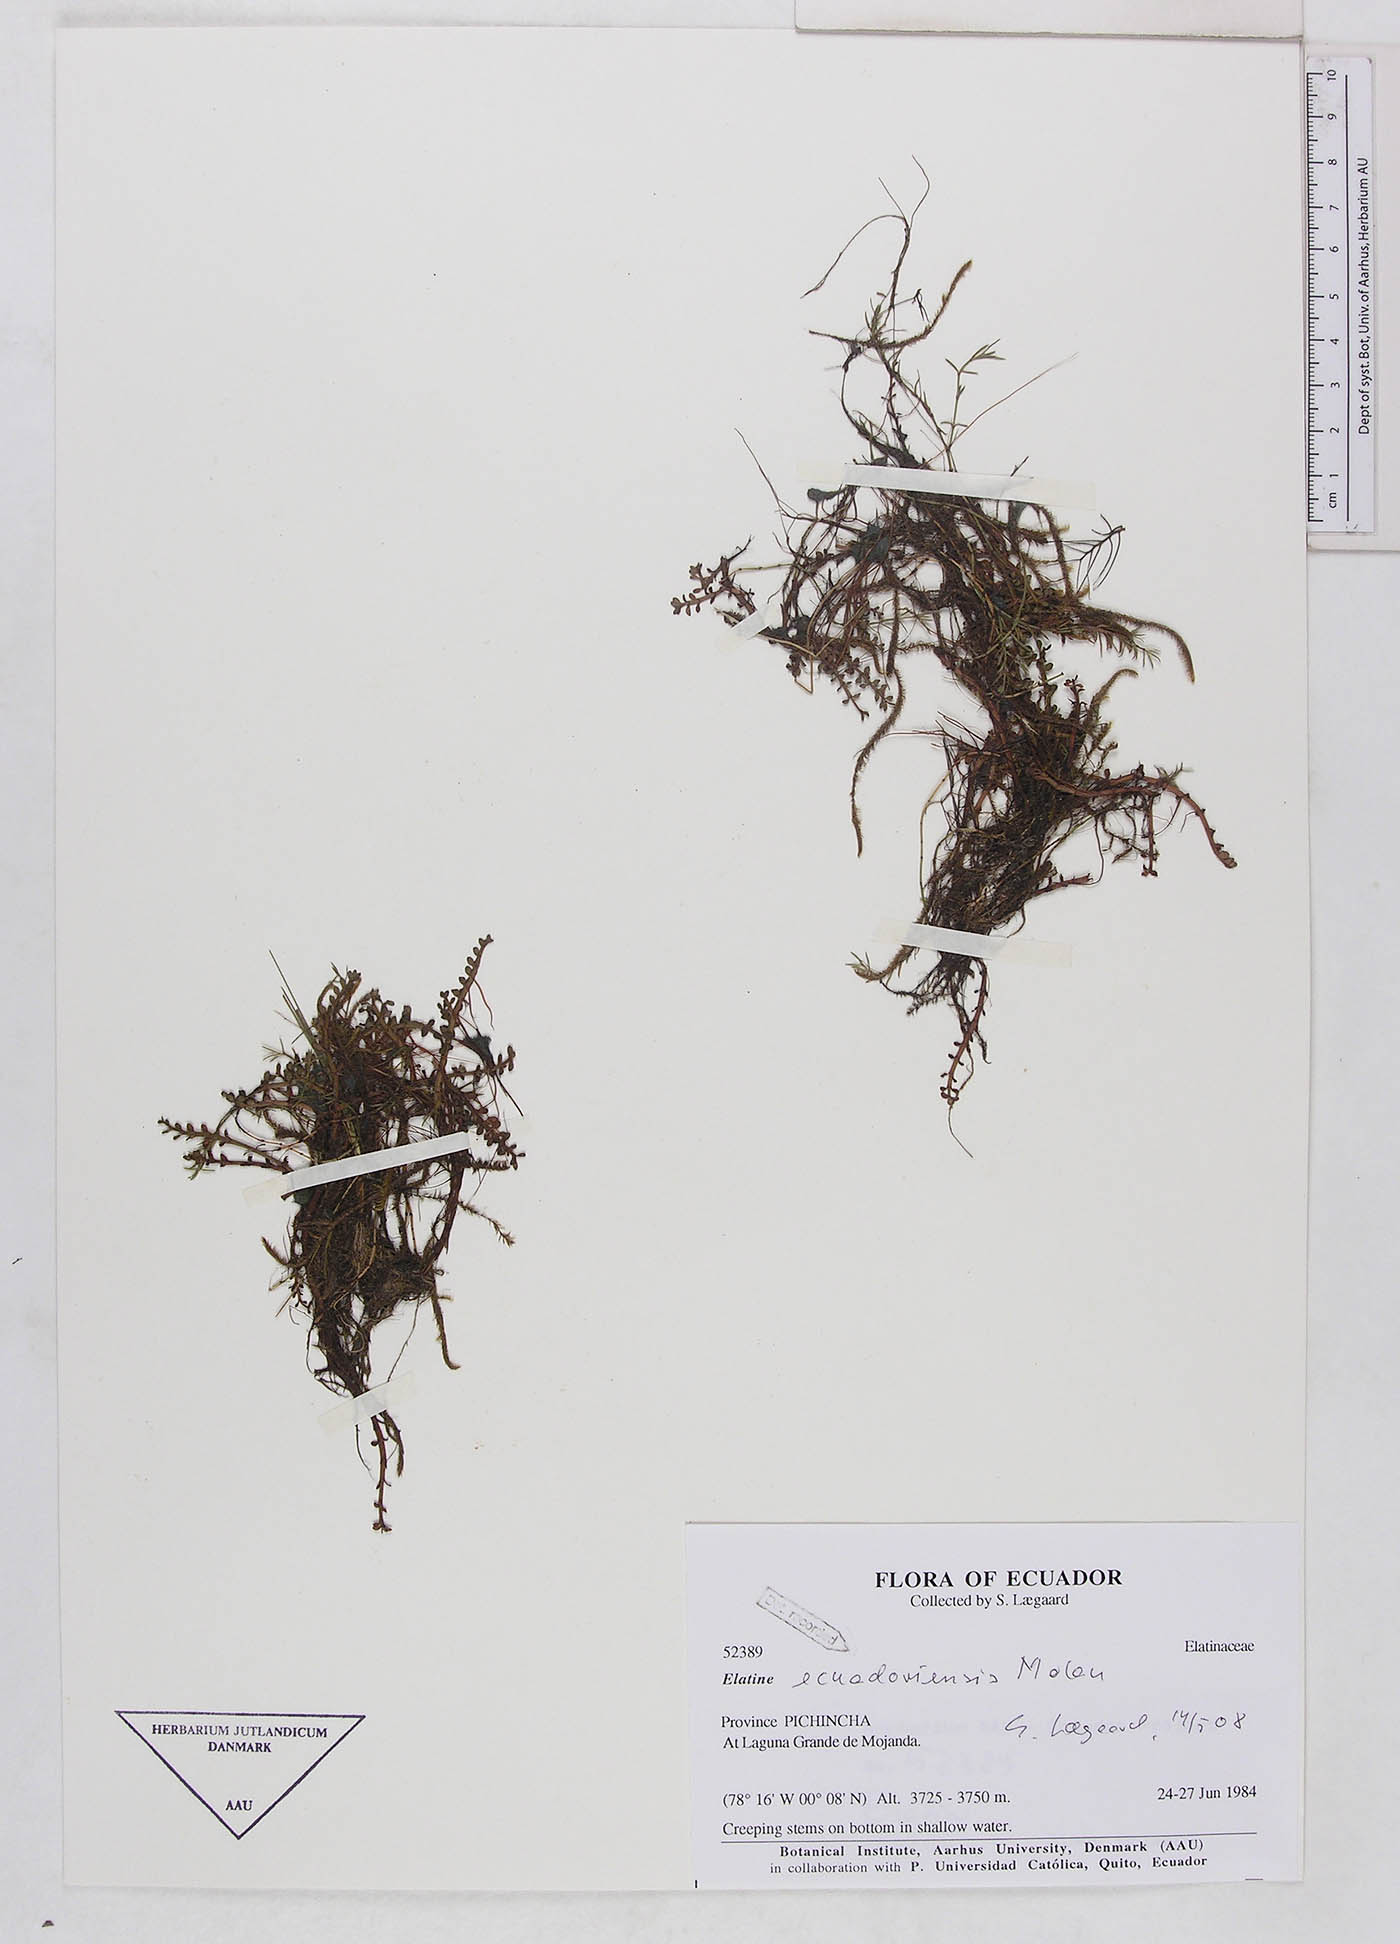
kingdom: Plantae
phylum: Tracheophyta
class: Magnoliopsida
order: Malpighiales
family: Elatinaceae
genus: Elatine
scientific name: Elatine ecuadoriensis
